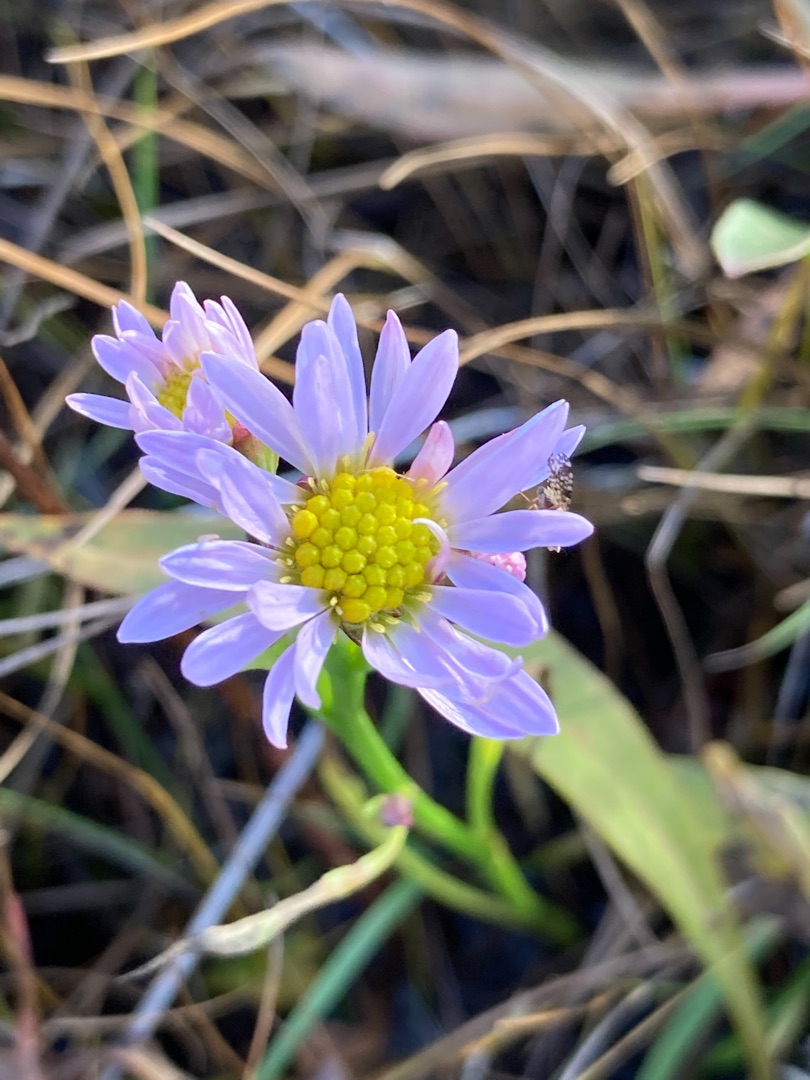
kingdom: Plantae
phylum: Tracheophyta
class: Magnoliopsida
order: Asterales
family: Asteraceae
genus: Tripolium
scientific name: Tripolium pannonicum
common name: Strandasters
